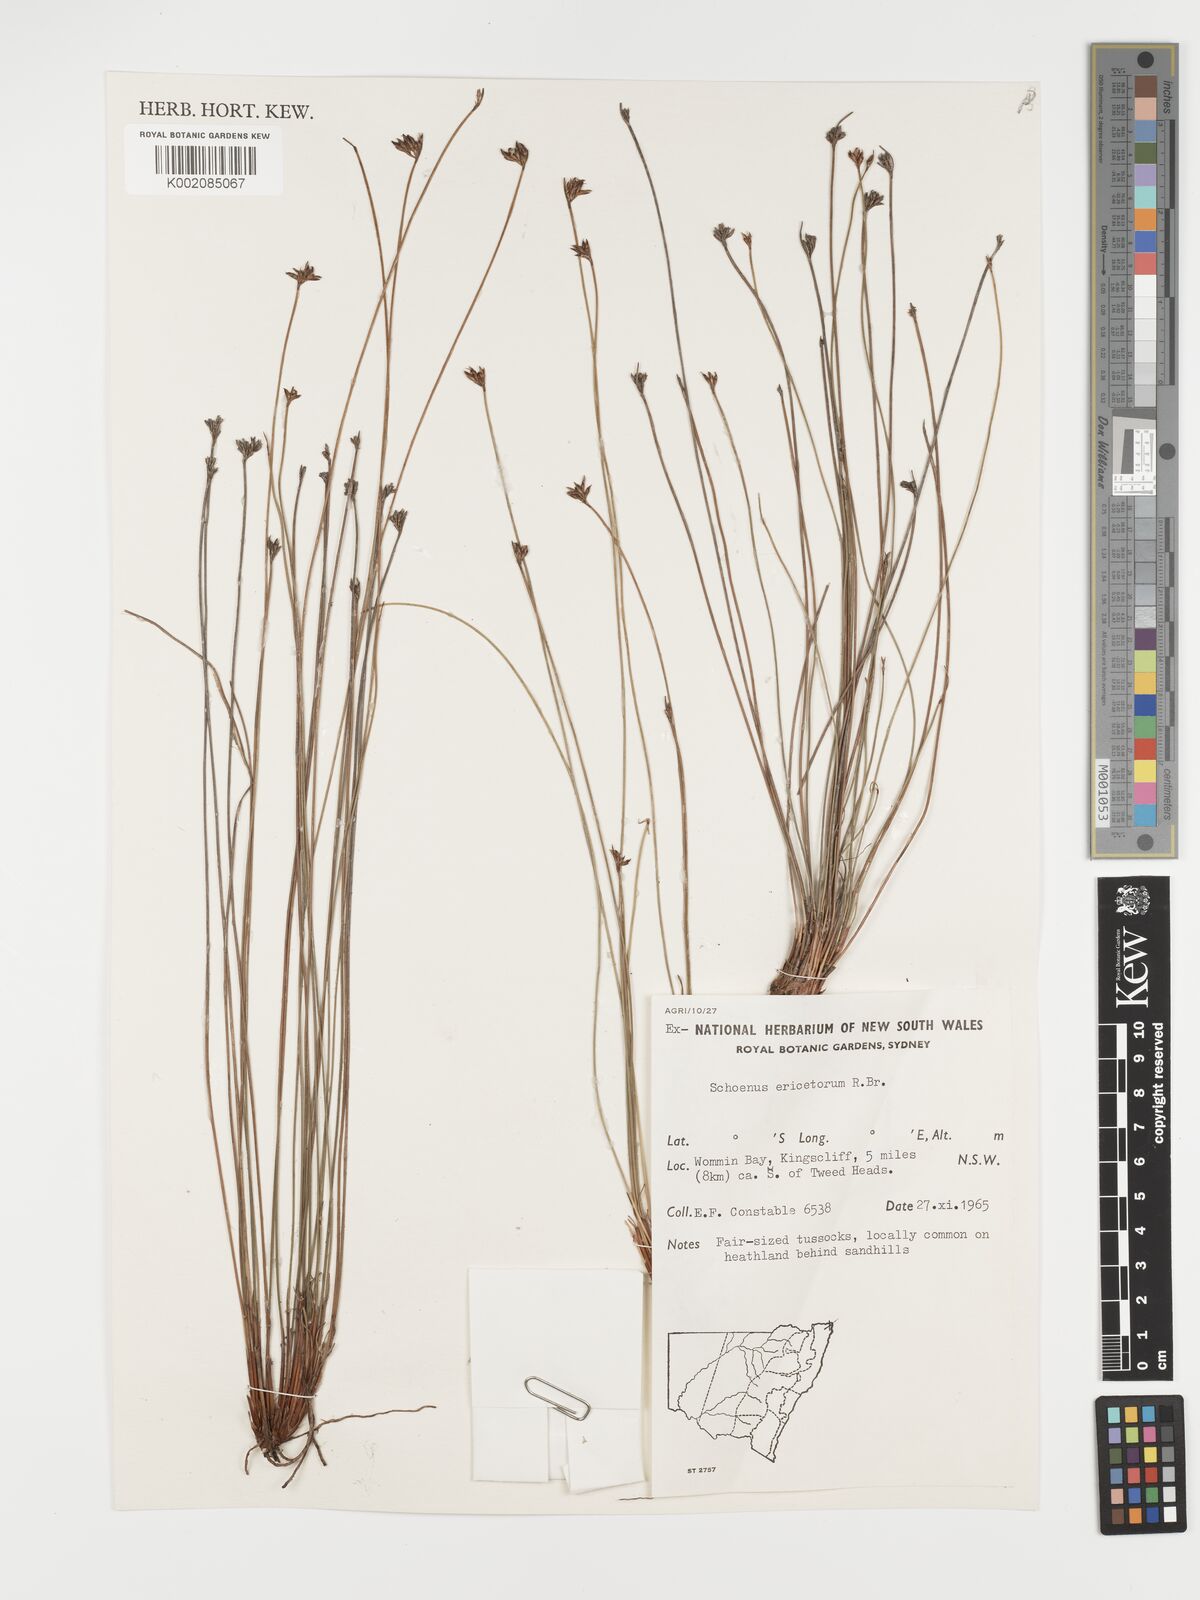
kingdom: Plantae
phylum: Tracheophyta
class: Liliopsida
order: Poales
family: Cyperaceae
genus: Schoenus
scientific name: Schoenus ericetorum
